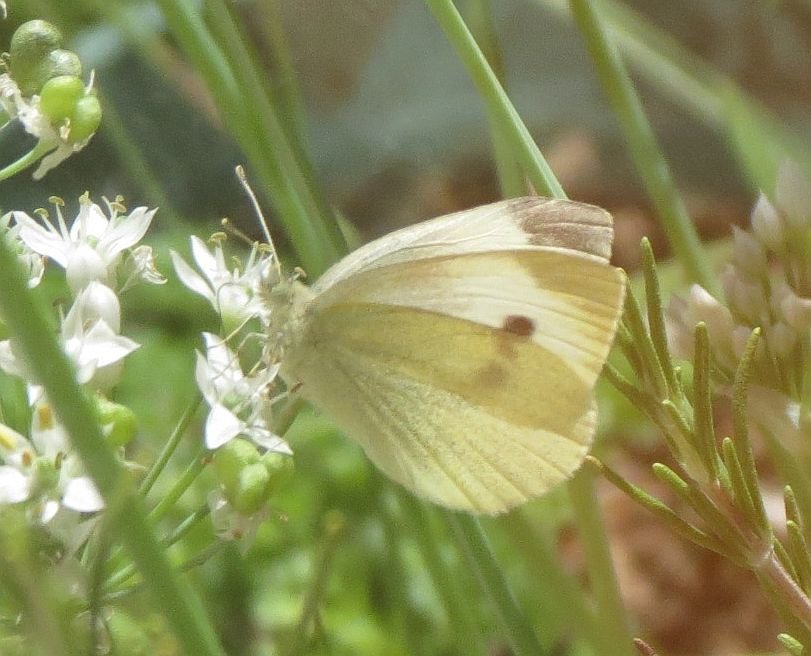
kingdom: Animalia
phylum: Arthropoda
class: Insecta
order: Lepidoptera
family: Pieridae
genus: Pieris
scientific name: Pieris rapae
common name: Cabbage White
